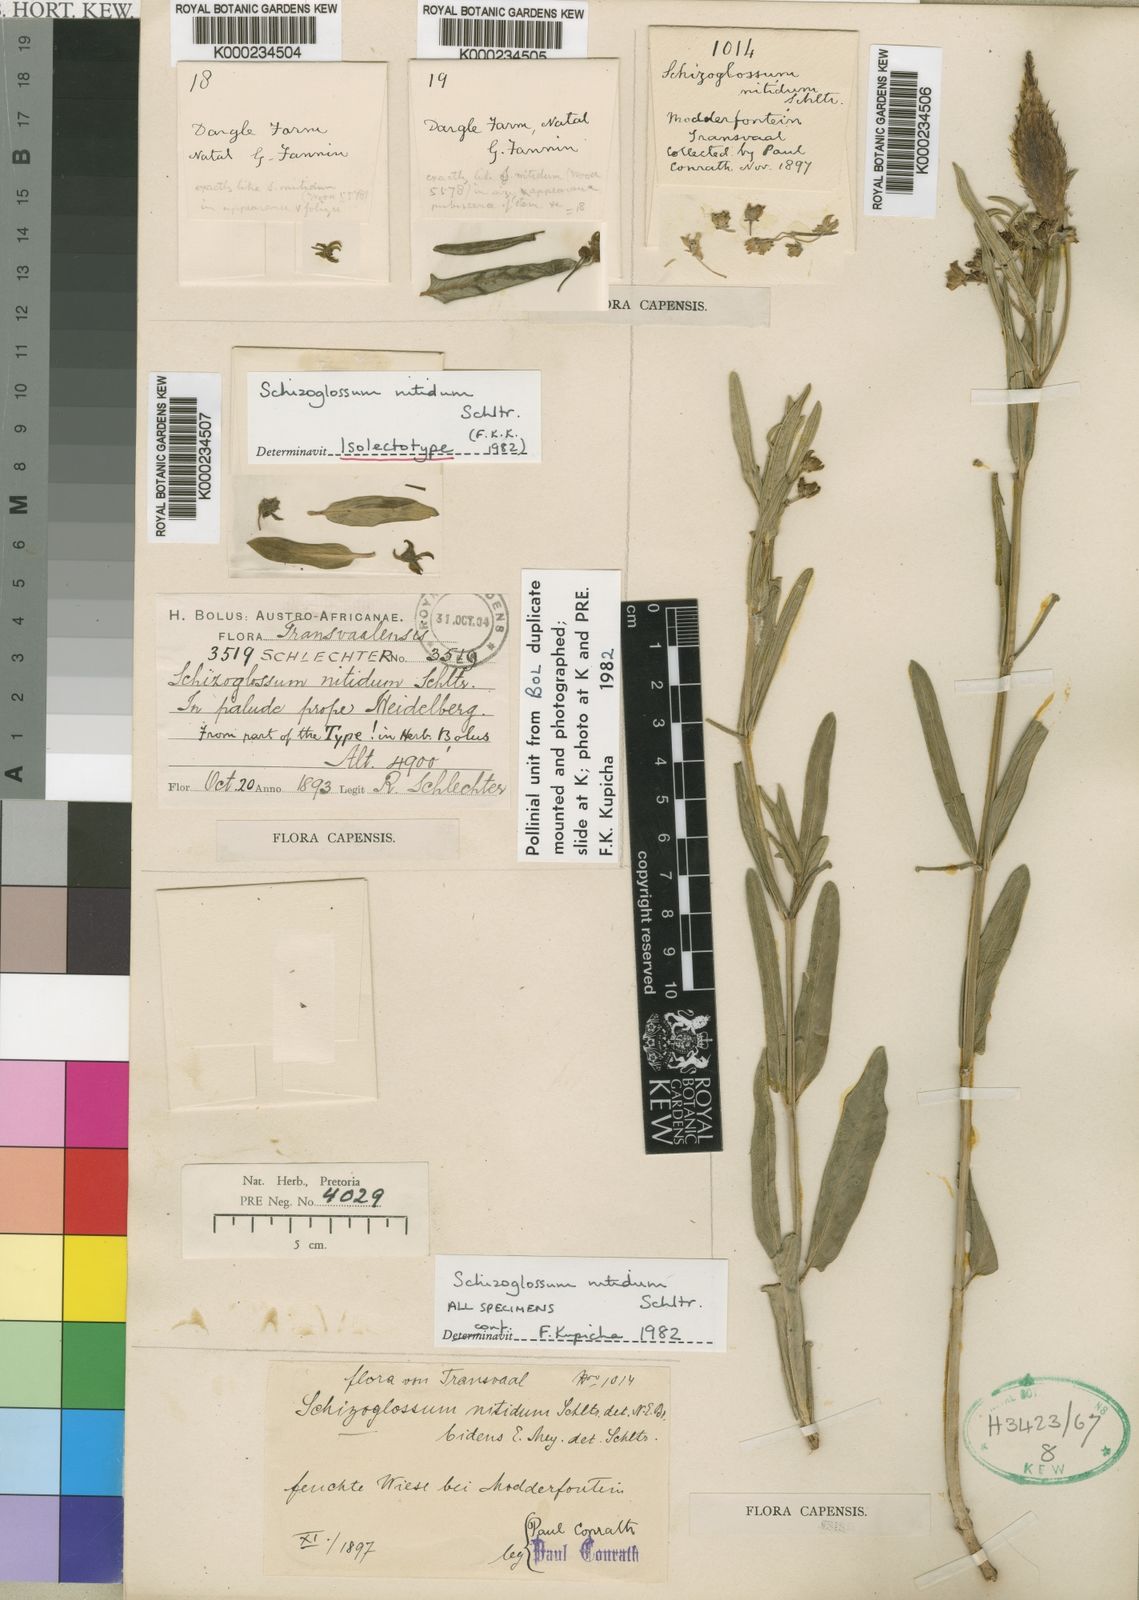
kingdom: Plantae
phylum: Tracheophyta
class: Magnoliopsida
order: Gentianales
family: Apocynaceae
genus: Schizoglossum
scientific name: Schizoglossum nitidum
